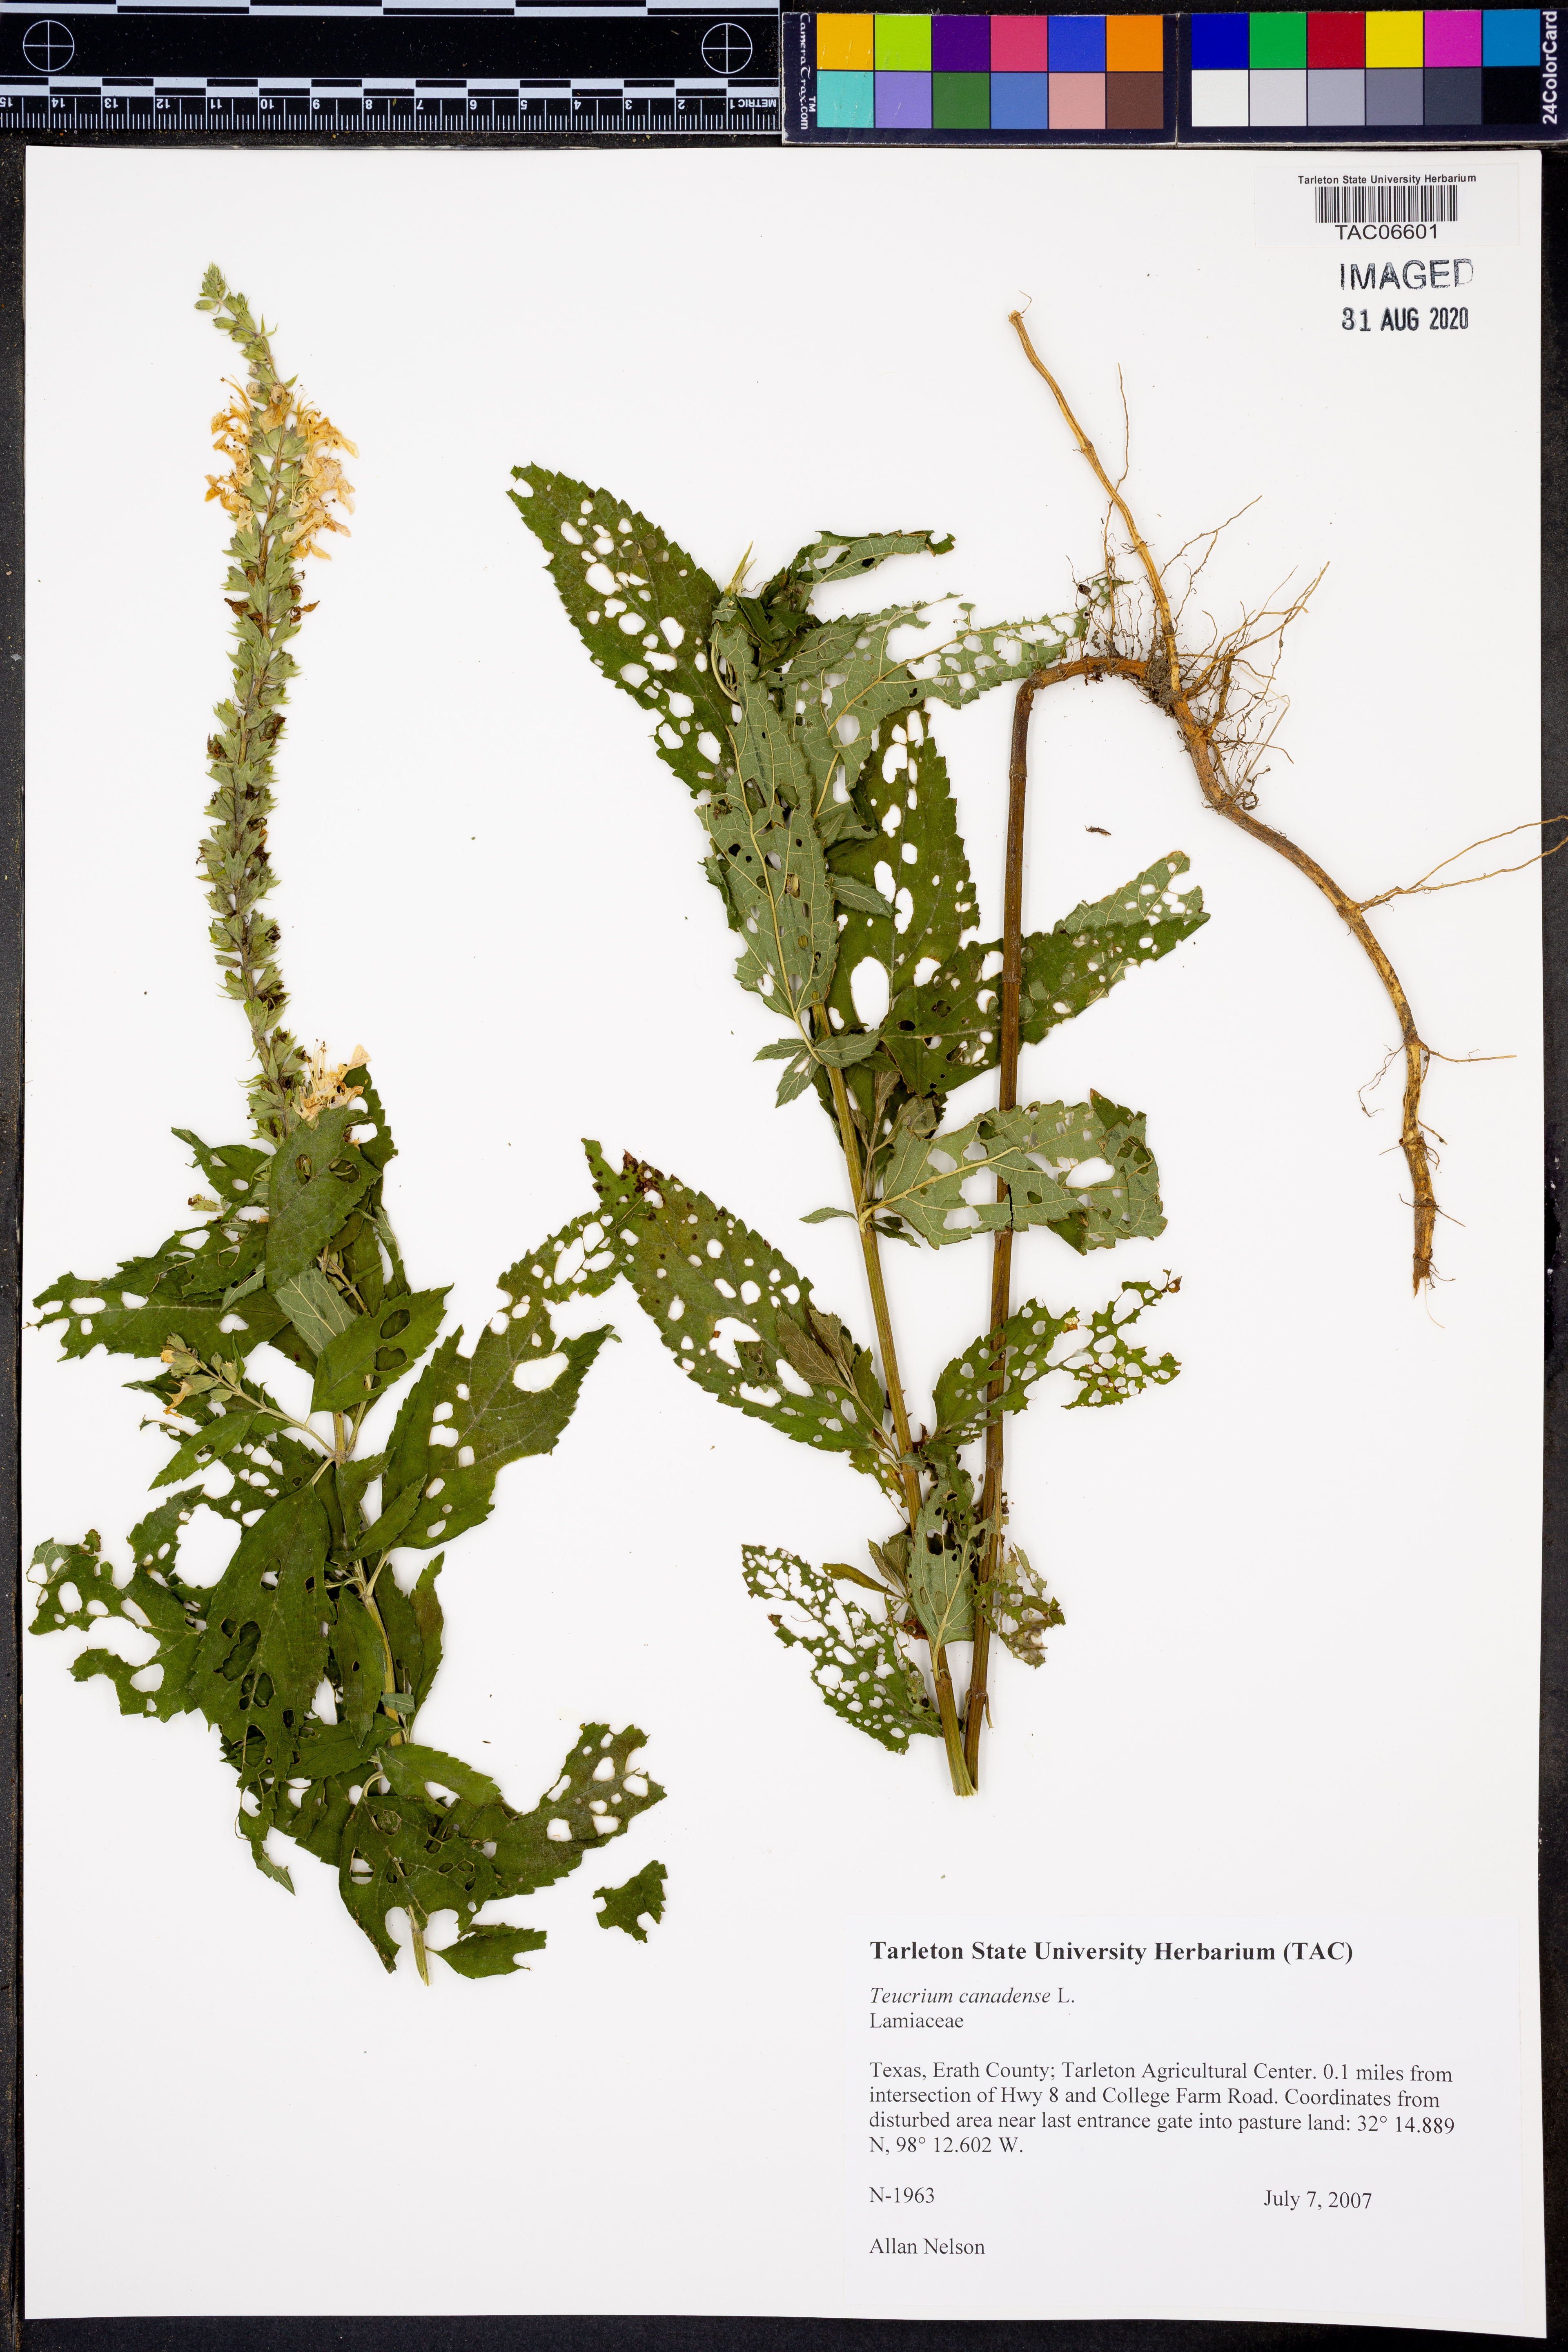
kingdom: Plantae
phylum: Tracheophyta
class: Magnoliopsida
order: Lamiales
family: Lamiaceae
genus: Teucrium
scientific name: Teucrium canadense
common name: American germander
